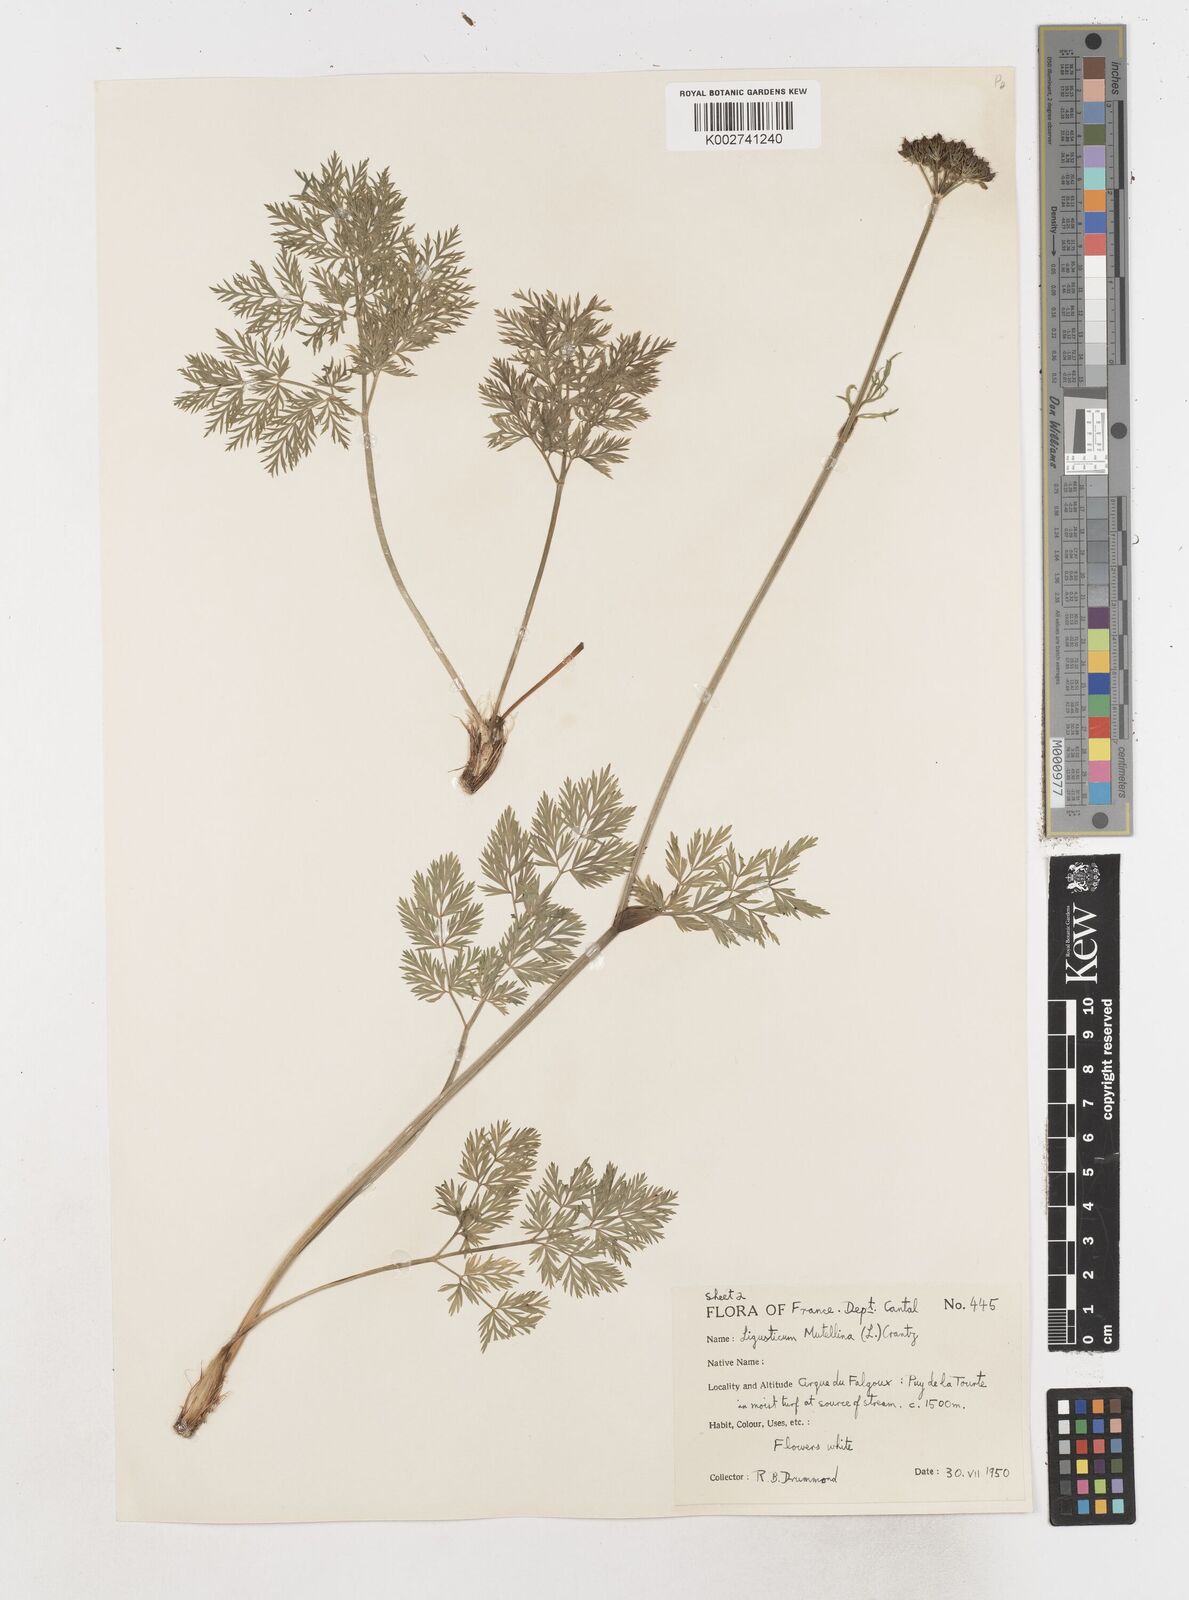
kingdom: Plantae
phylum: Tracheophyta
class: Magnoliopsida
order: Apiales
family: Apiaceae
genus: Mutellina
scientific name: Mutellina adonidifolia
